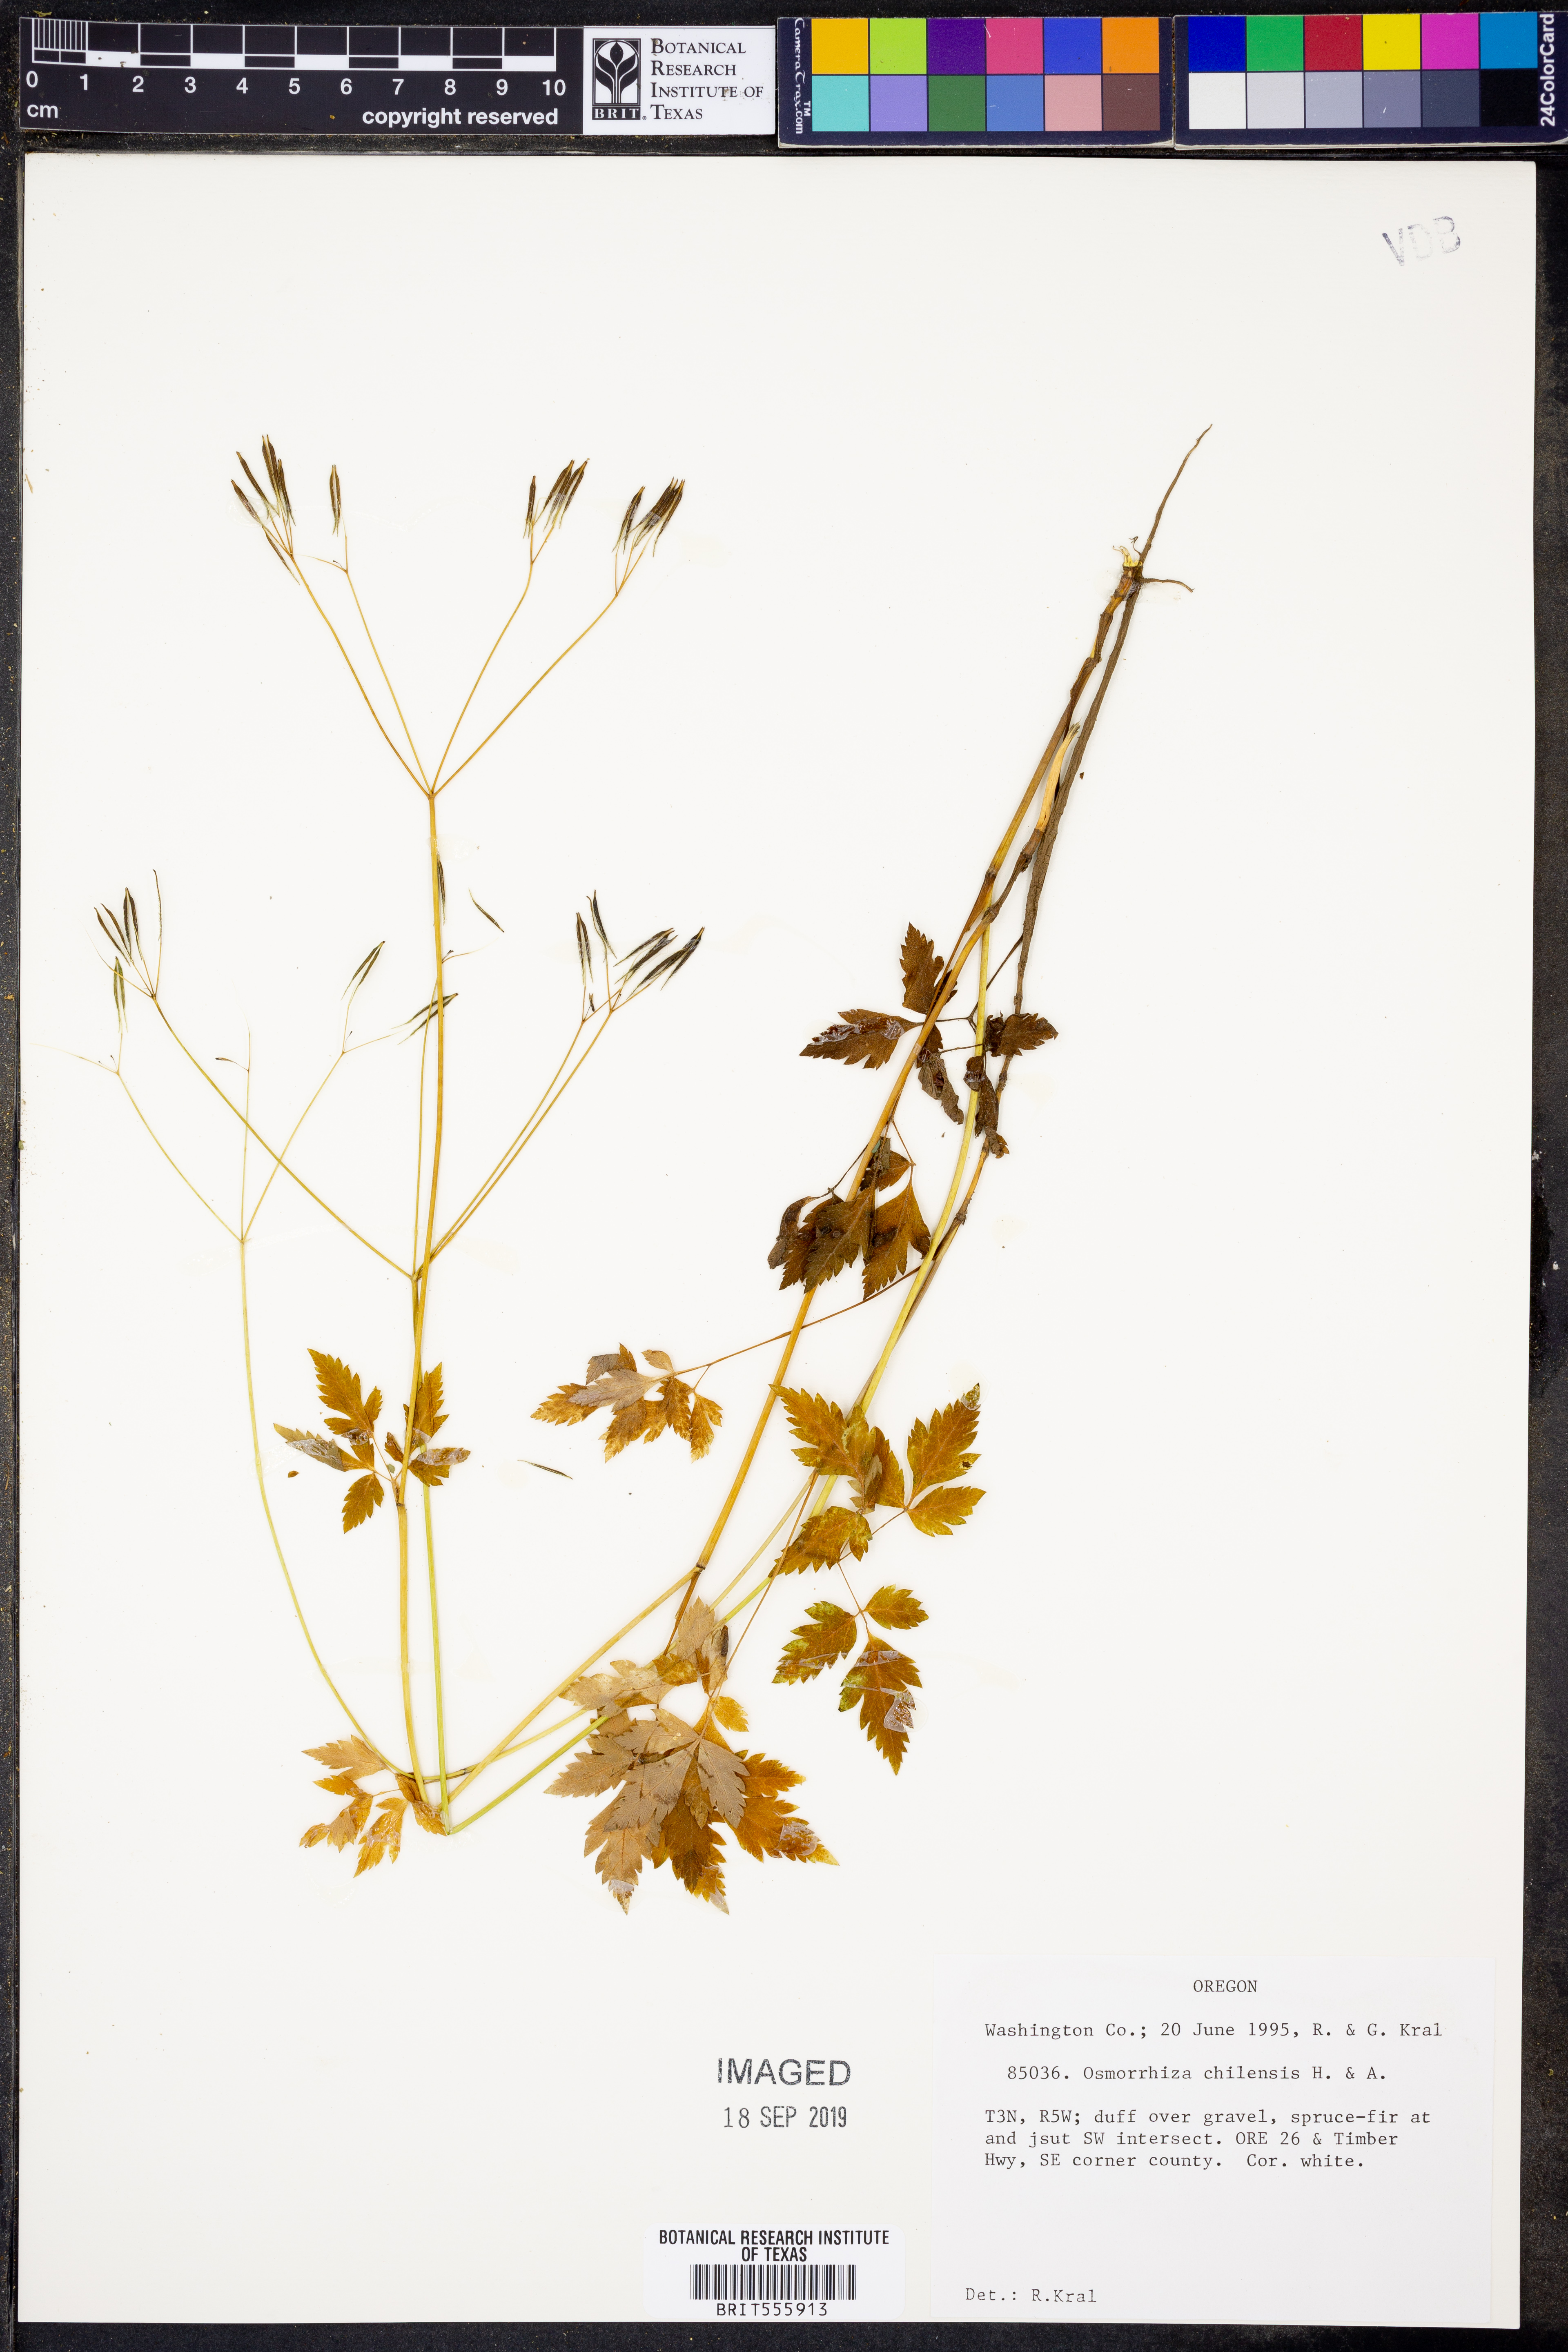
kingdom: Plantae
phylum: Tracheophyta
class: Magnoliopsida
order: Apiales
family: Apiaceae
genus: Osmorhiza
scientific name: Osmorhiza berteroi
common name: Mountain sweet cicely
